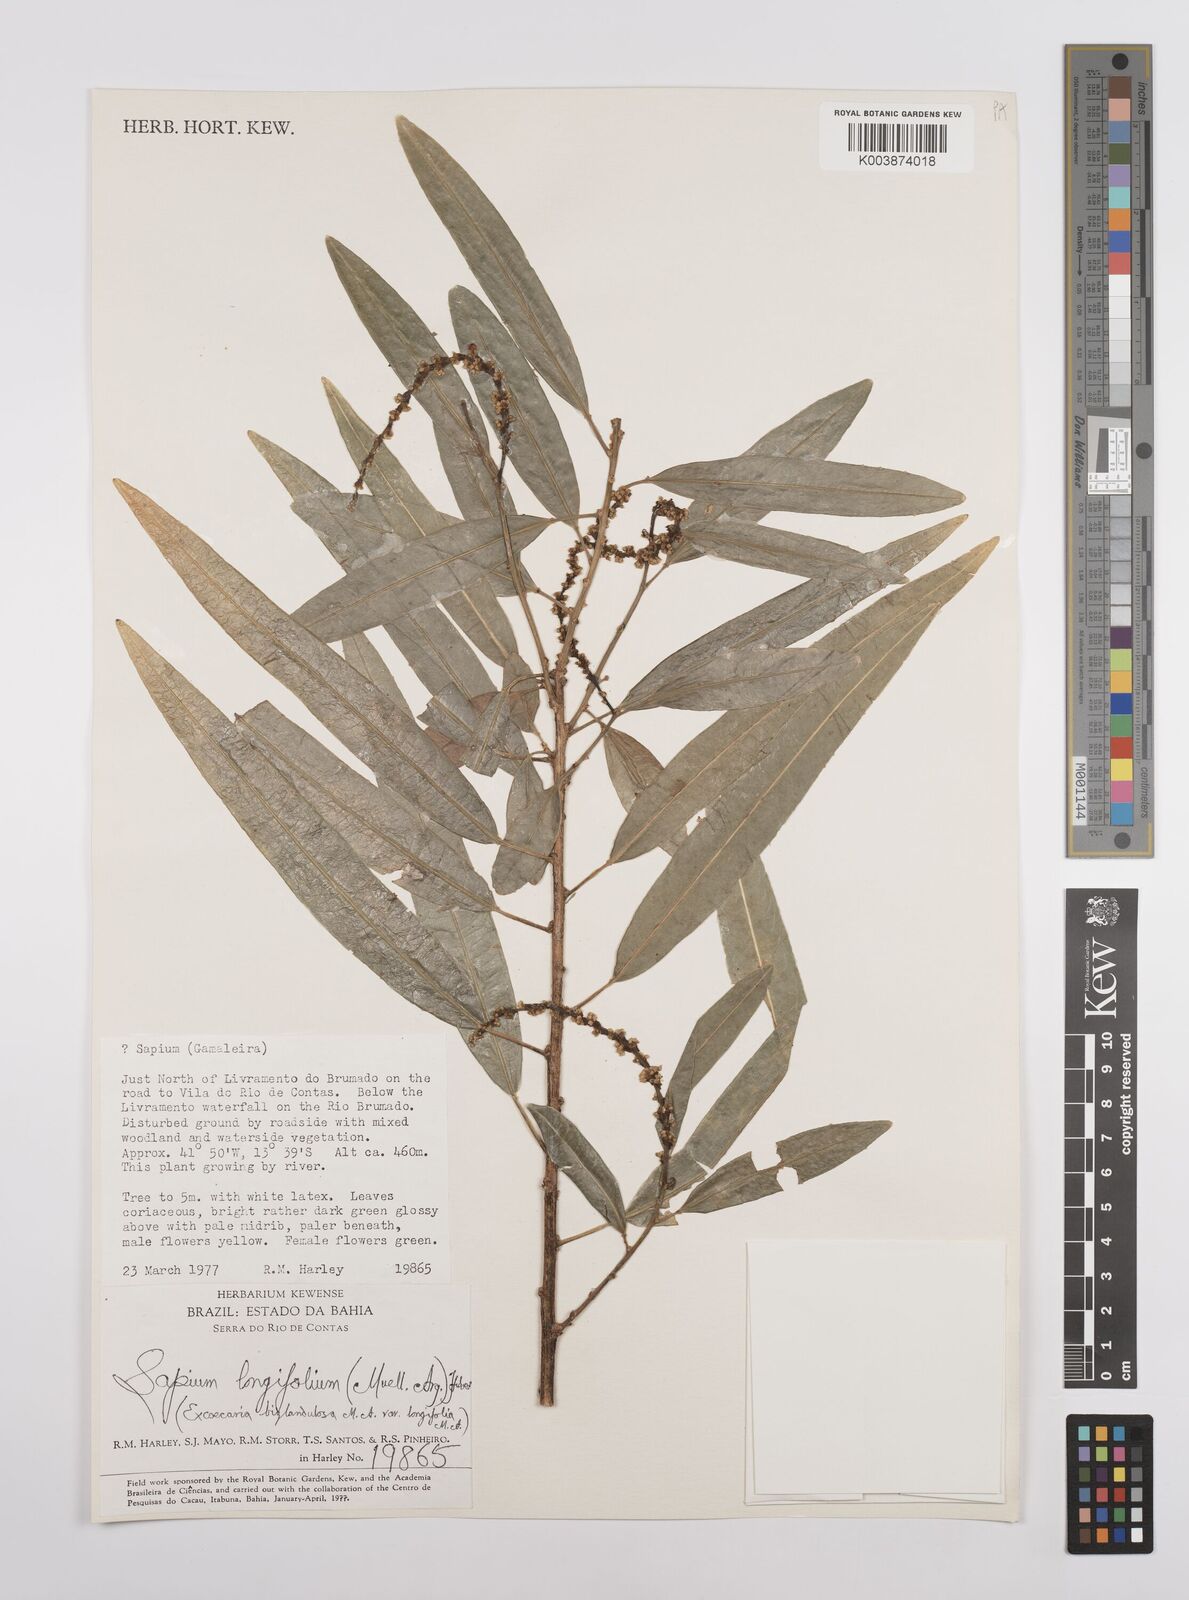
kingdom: Plantae
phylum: Tracheophyta
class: Magnoliopsida
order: Malpighiales
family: Euphorbiaceae
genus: Sapium
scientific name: Sapium haematospermum
